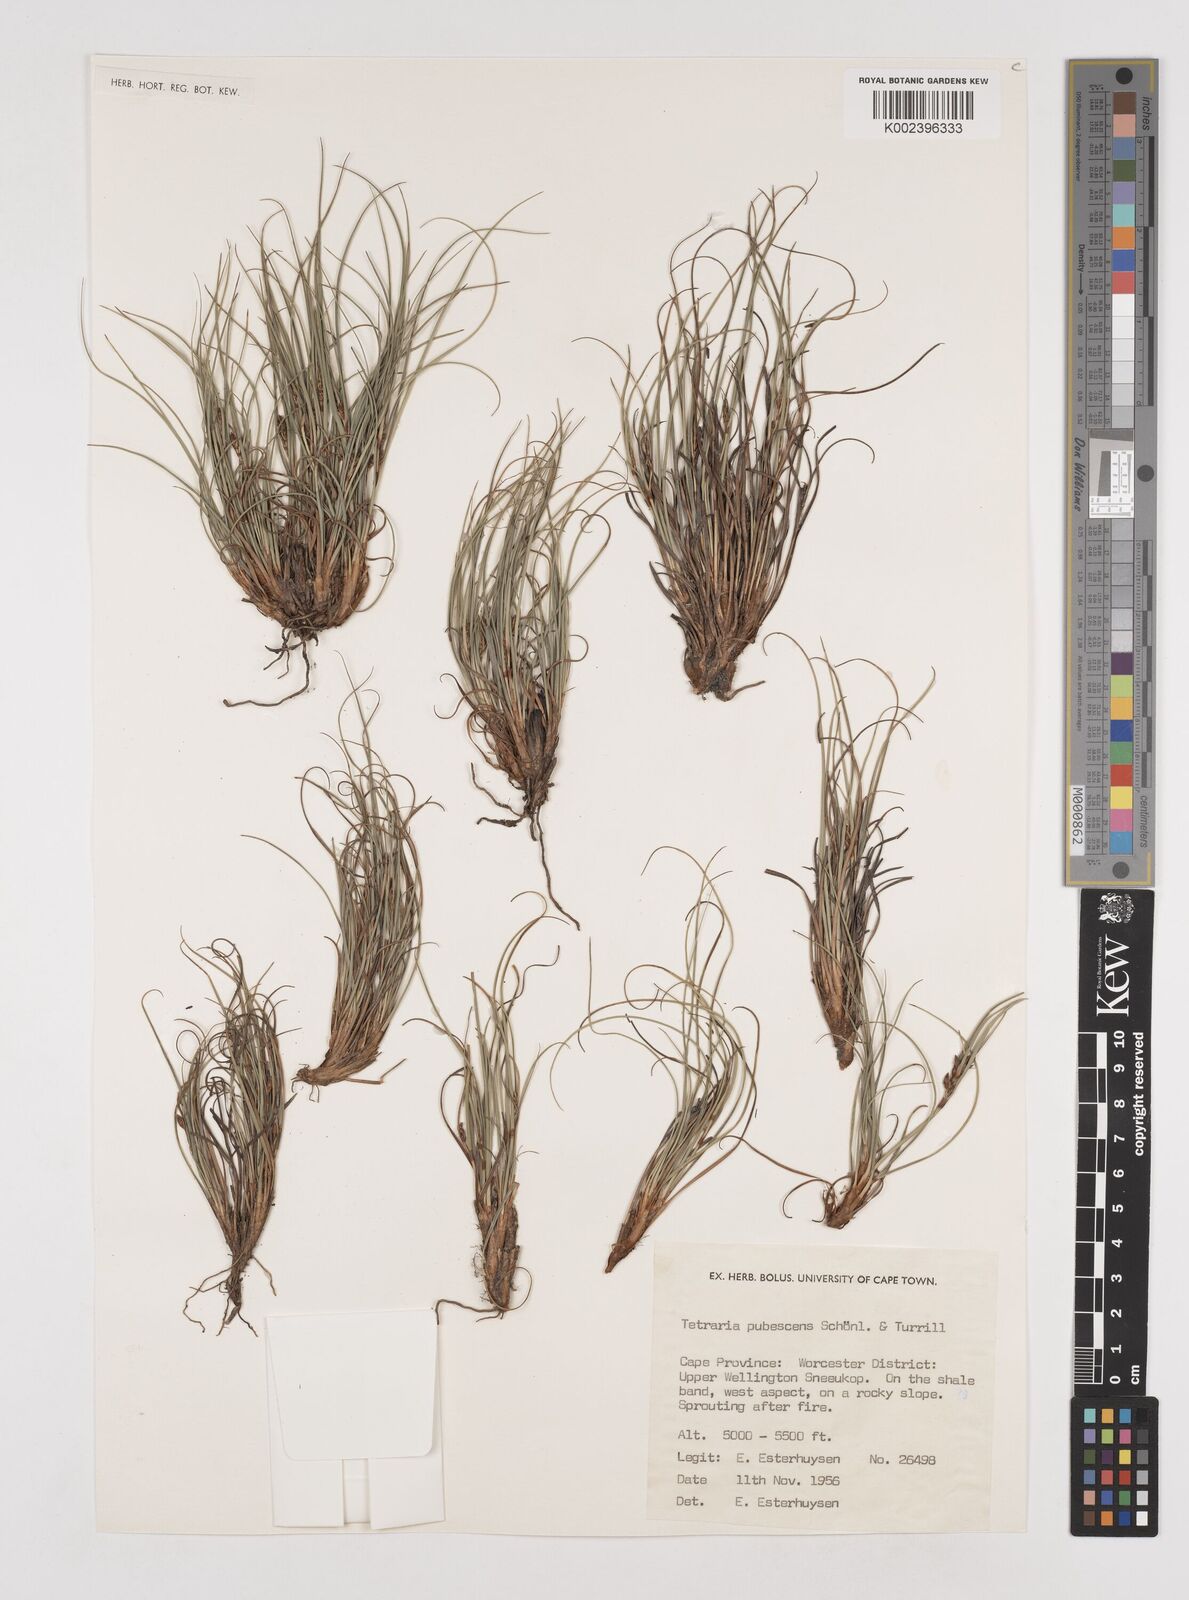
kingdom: Plantae
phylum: Tracheophyta
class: Liliopsida
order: Poales
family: Cyperaceae
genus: Tetraria
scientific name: Tetraria pubescens
